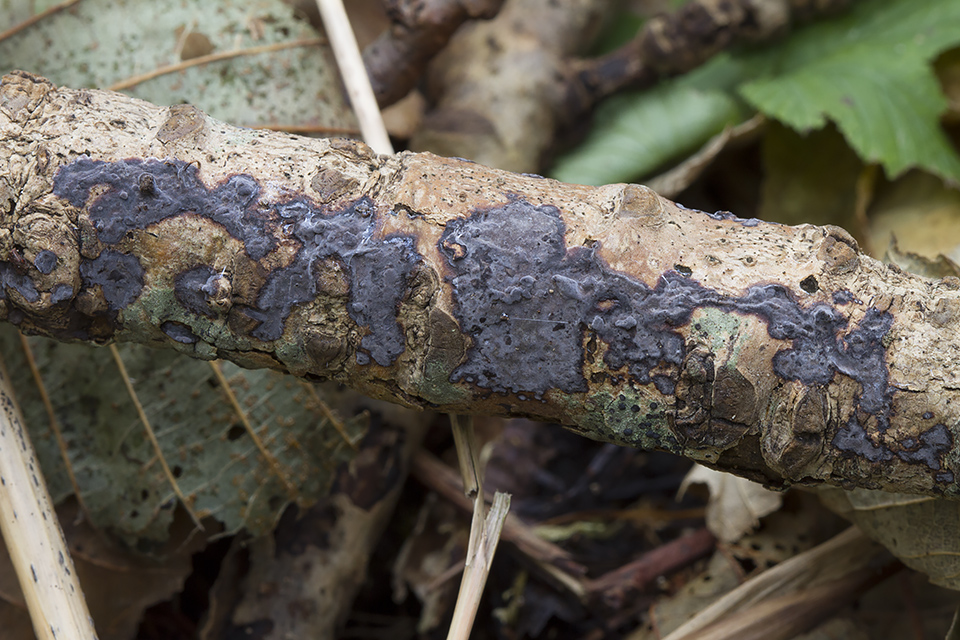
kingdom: Fungi
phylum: Basidiomycota
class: Agaricomycetes
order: Russulales
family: Peniophoraceae
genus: Peniophora
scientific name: Peniophora limitata
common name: mørkrandet voksskind
